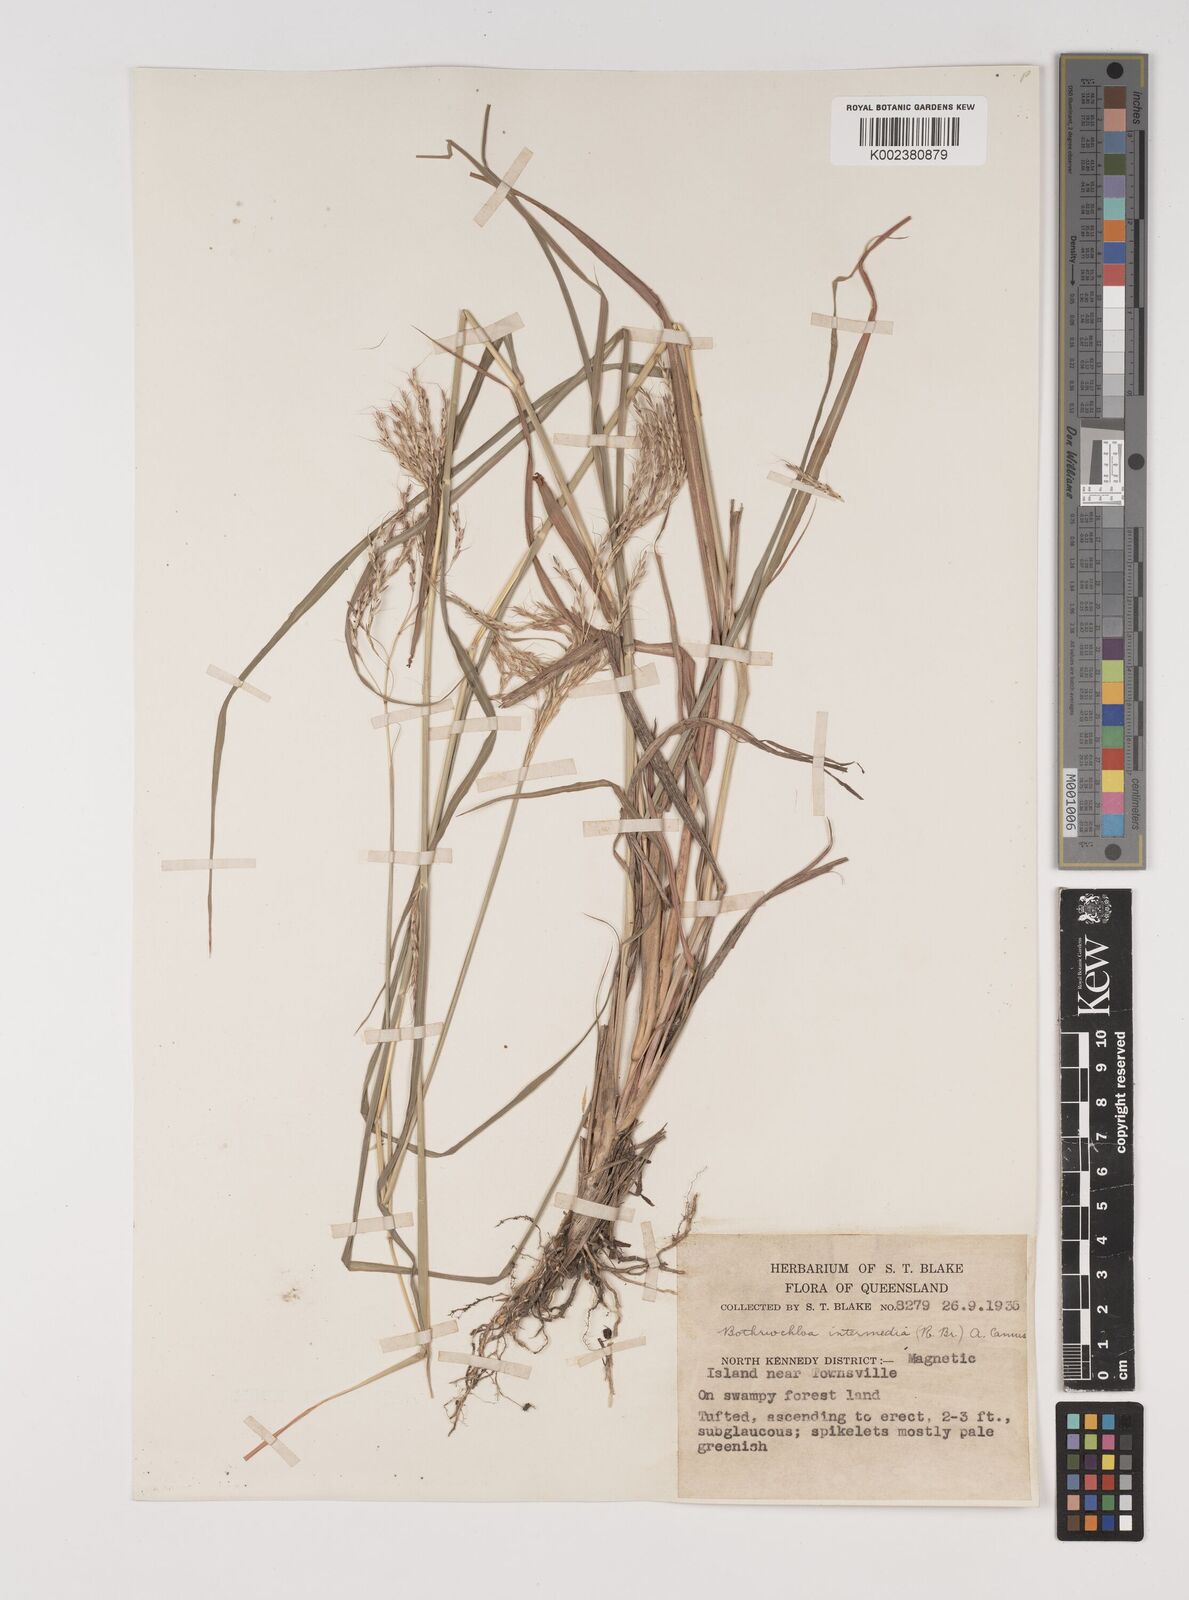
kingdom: Plantae
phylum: Tracheophyta
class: Liliopsida
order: Poales
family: Poaceae
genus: Bothriochloa
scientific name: Bothriochloa bladhii
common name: Caucasian bluestem
